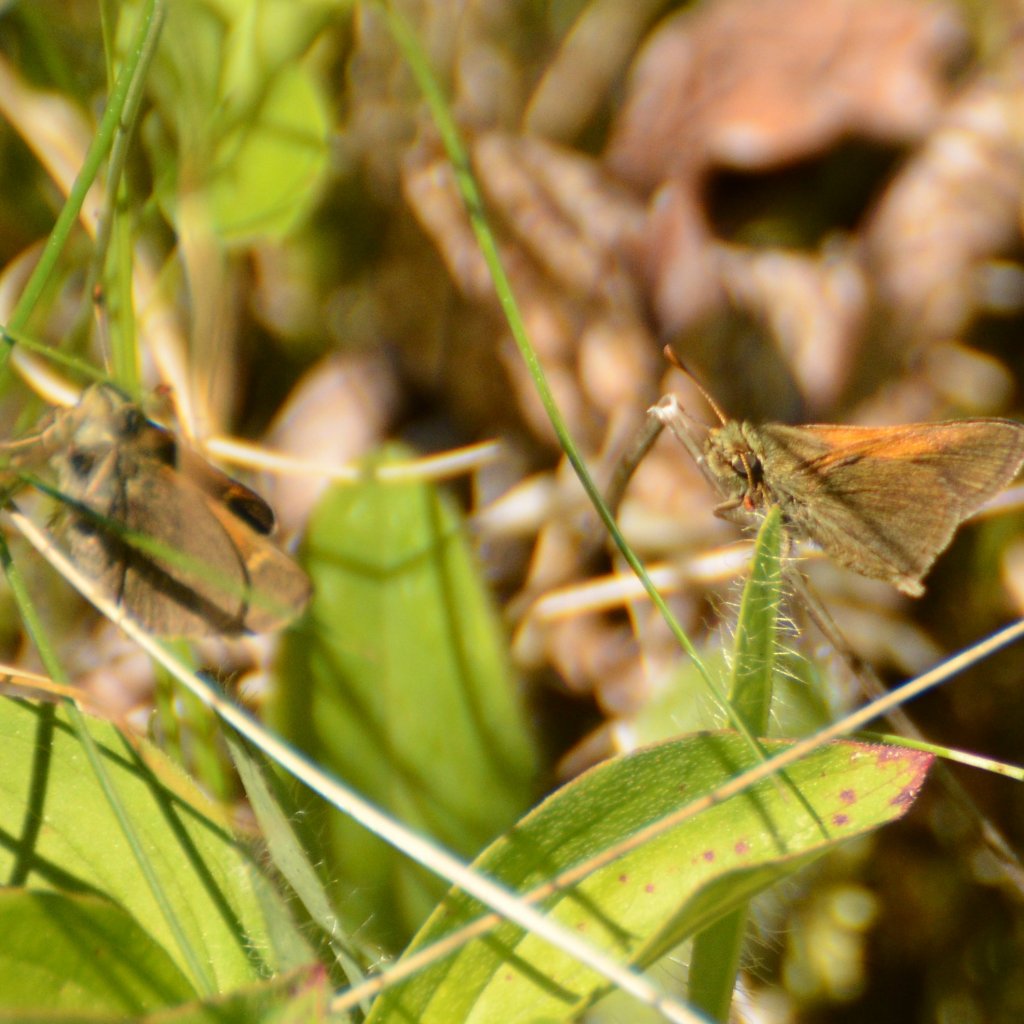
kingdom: Animalia
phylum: Arthropoda
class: Insecta
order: Lepidoptera
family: Hesperiidae
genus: Polites
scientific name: Polites themistocles
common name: Tawny-edged Skipper
